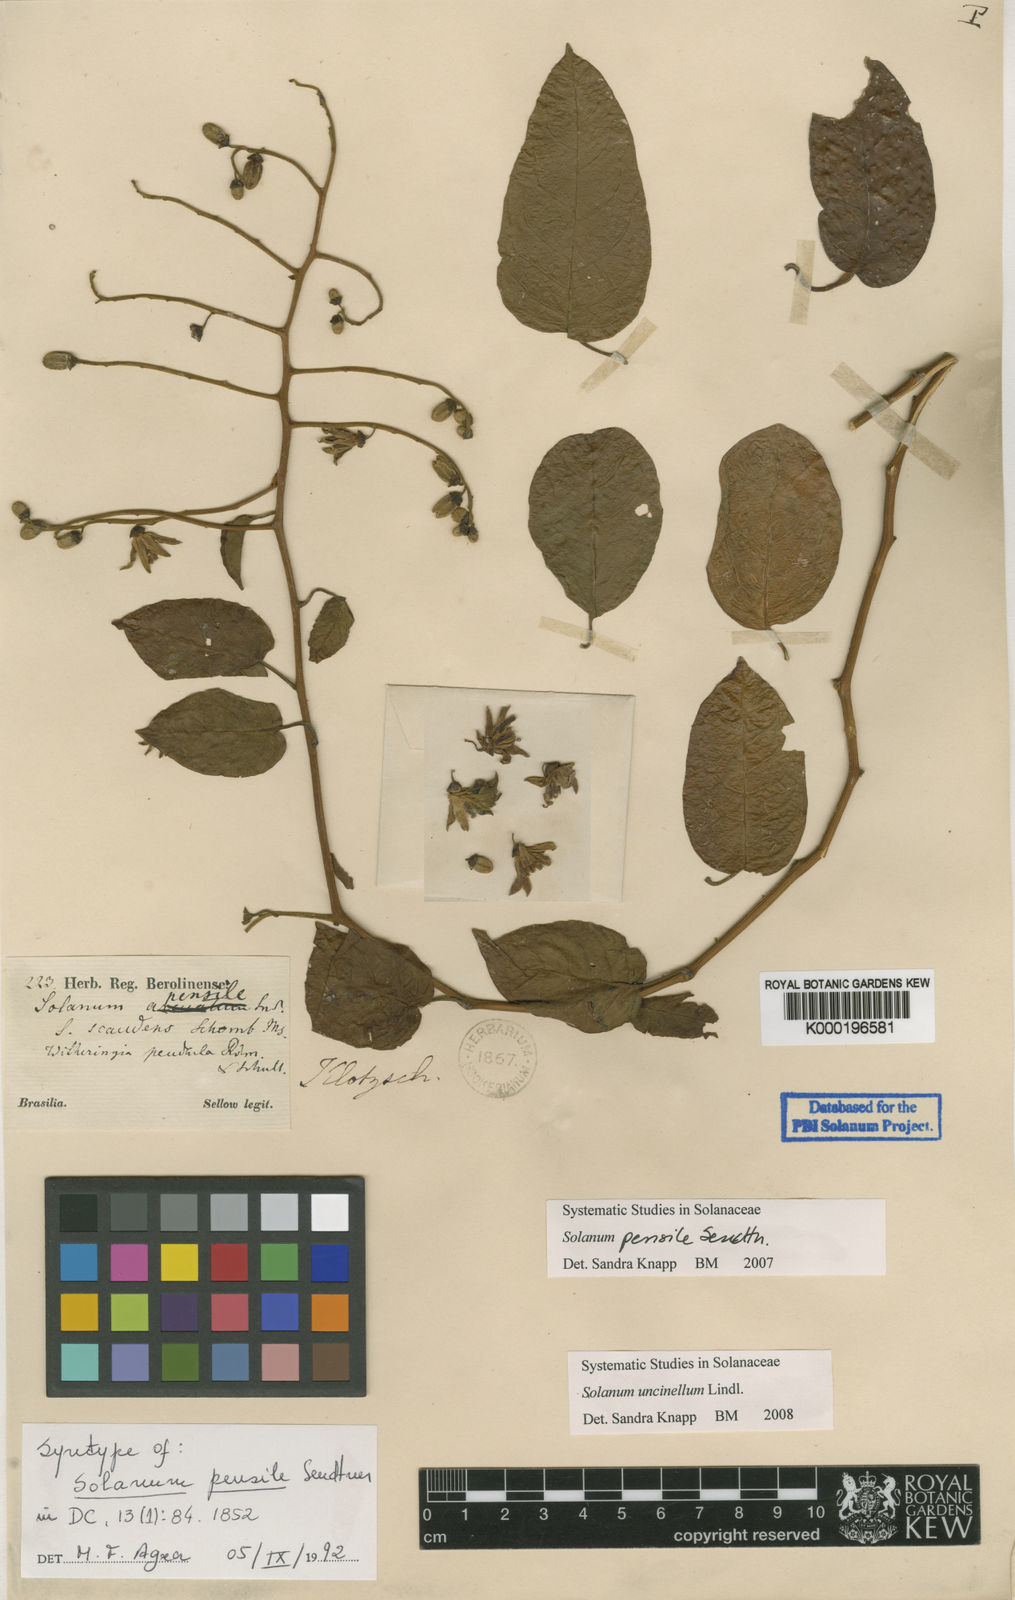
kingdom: Plantae
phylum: Tracheophyta
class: Magnoliopsida
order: Solanales
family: Solanaceae
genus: Solanum
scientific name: Solanum uncinellum
